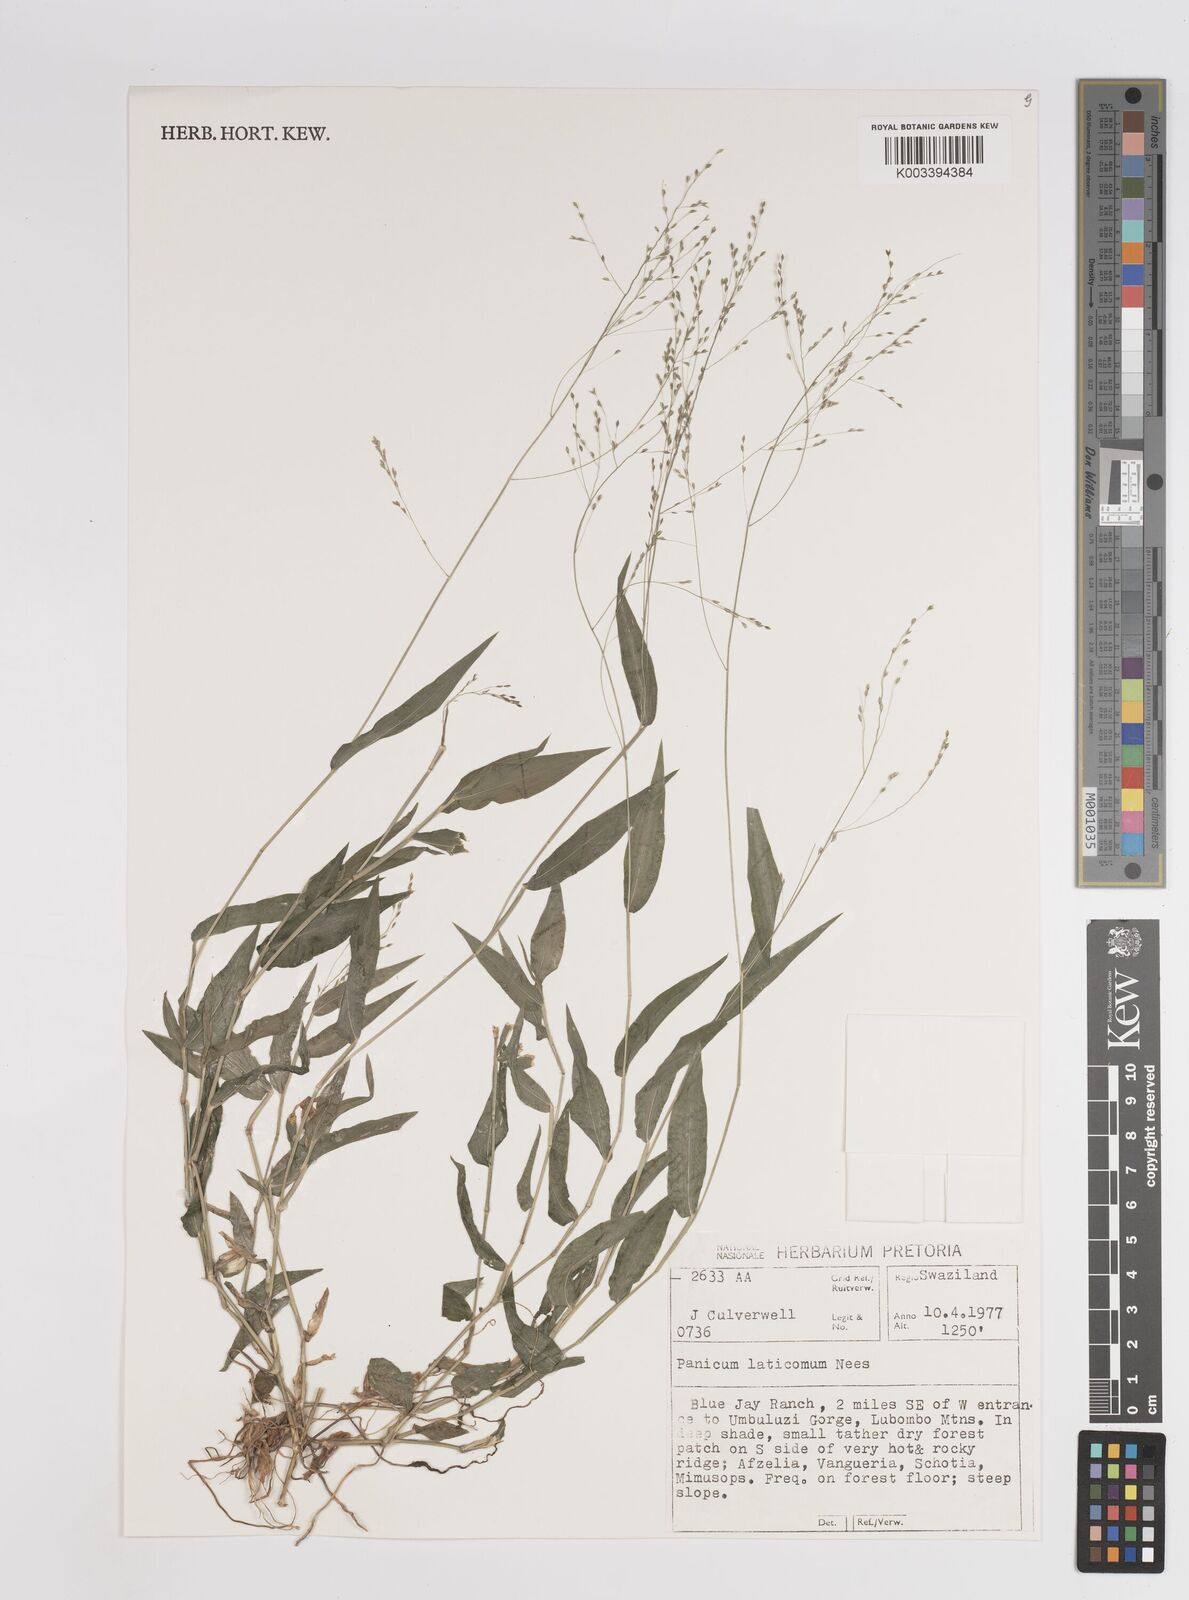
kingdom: Plantae
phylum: Tracheophyta
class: Liliopsida
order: Poales
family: Poaceae
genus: Panicum
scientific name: Panicum laticomum
